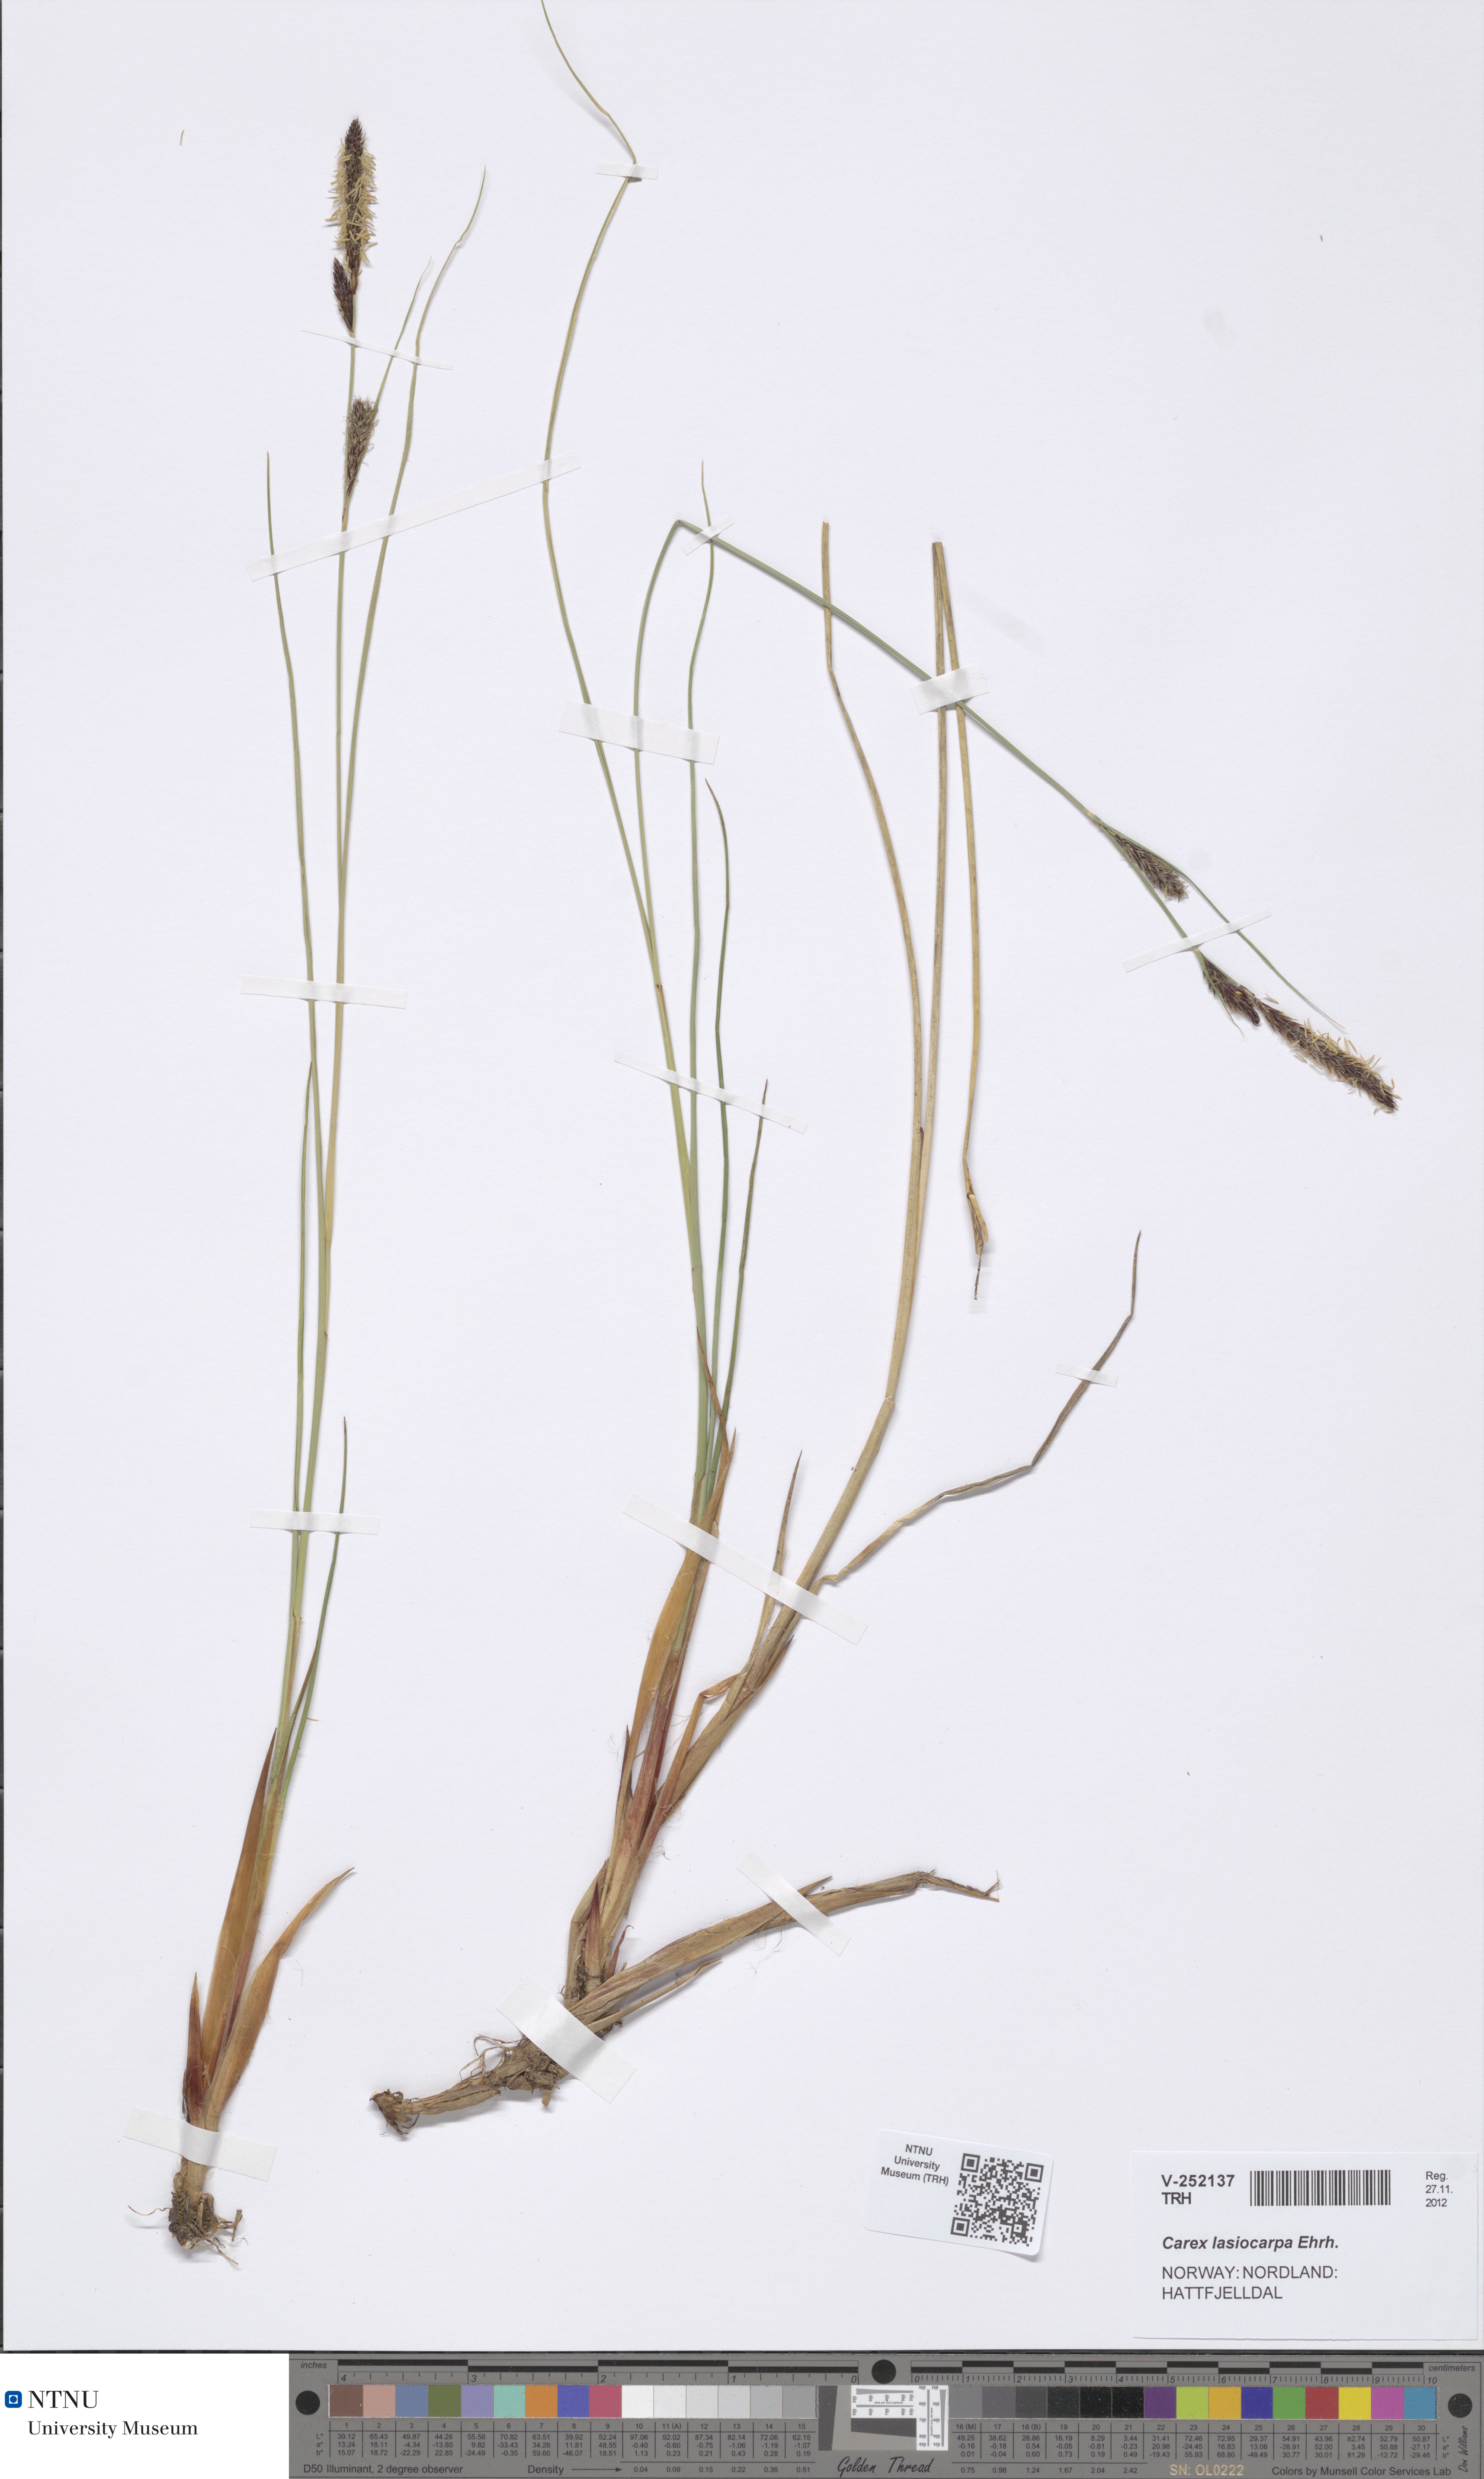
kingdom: Plantae
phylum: Tracheophyta
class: Liliopsida
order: Poales
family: Cyperaceae
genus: Carex
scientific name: Carex lasiocarpa
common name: Slender sedge
